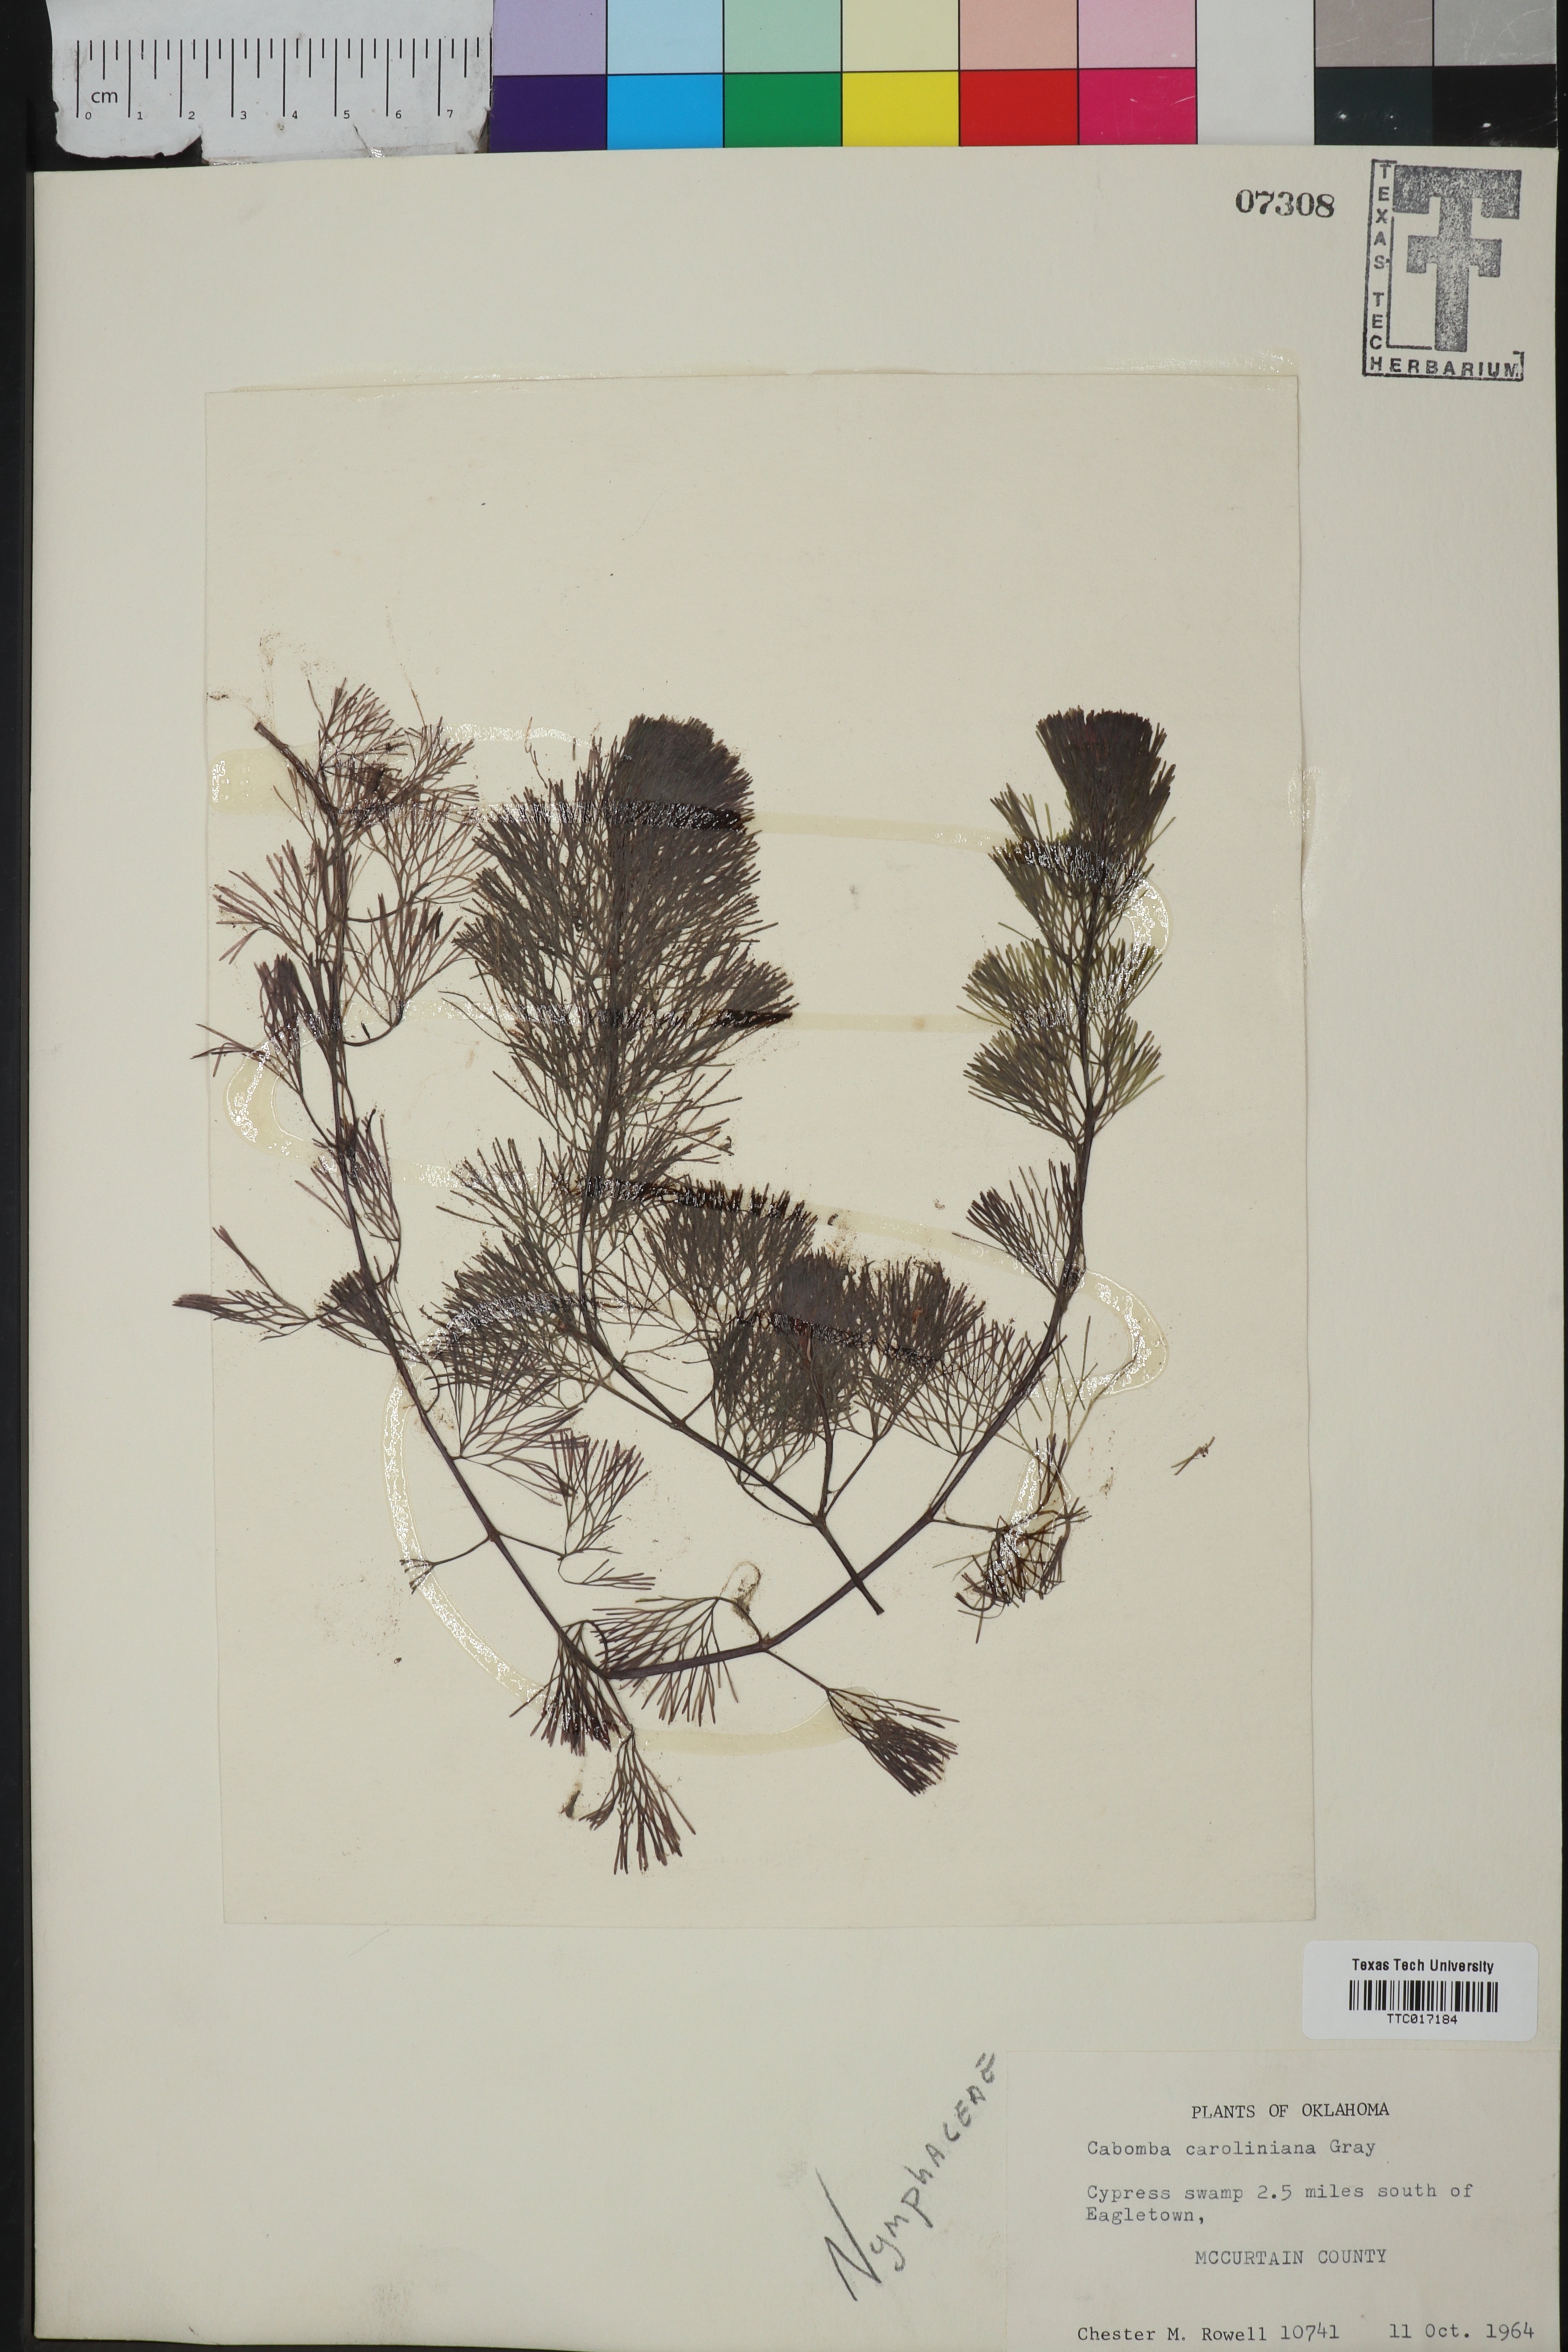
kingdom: Plantae
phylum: Tracheophyta
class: Magnoliopsida
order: Nymphaeales
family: Cabombaceae
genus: Cabomba
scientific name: Cabomba caroliniana
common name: Fanwort
